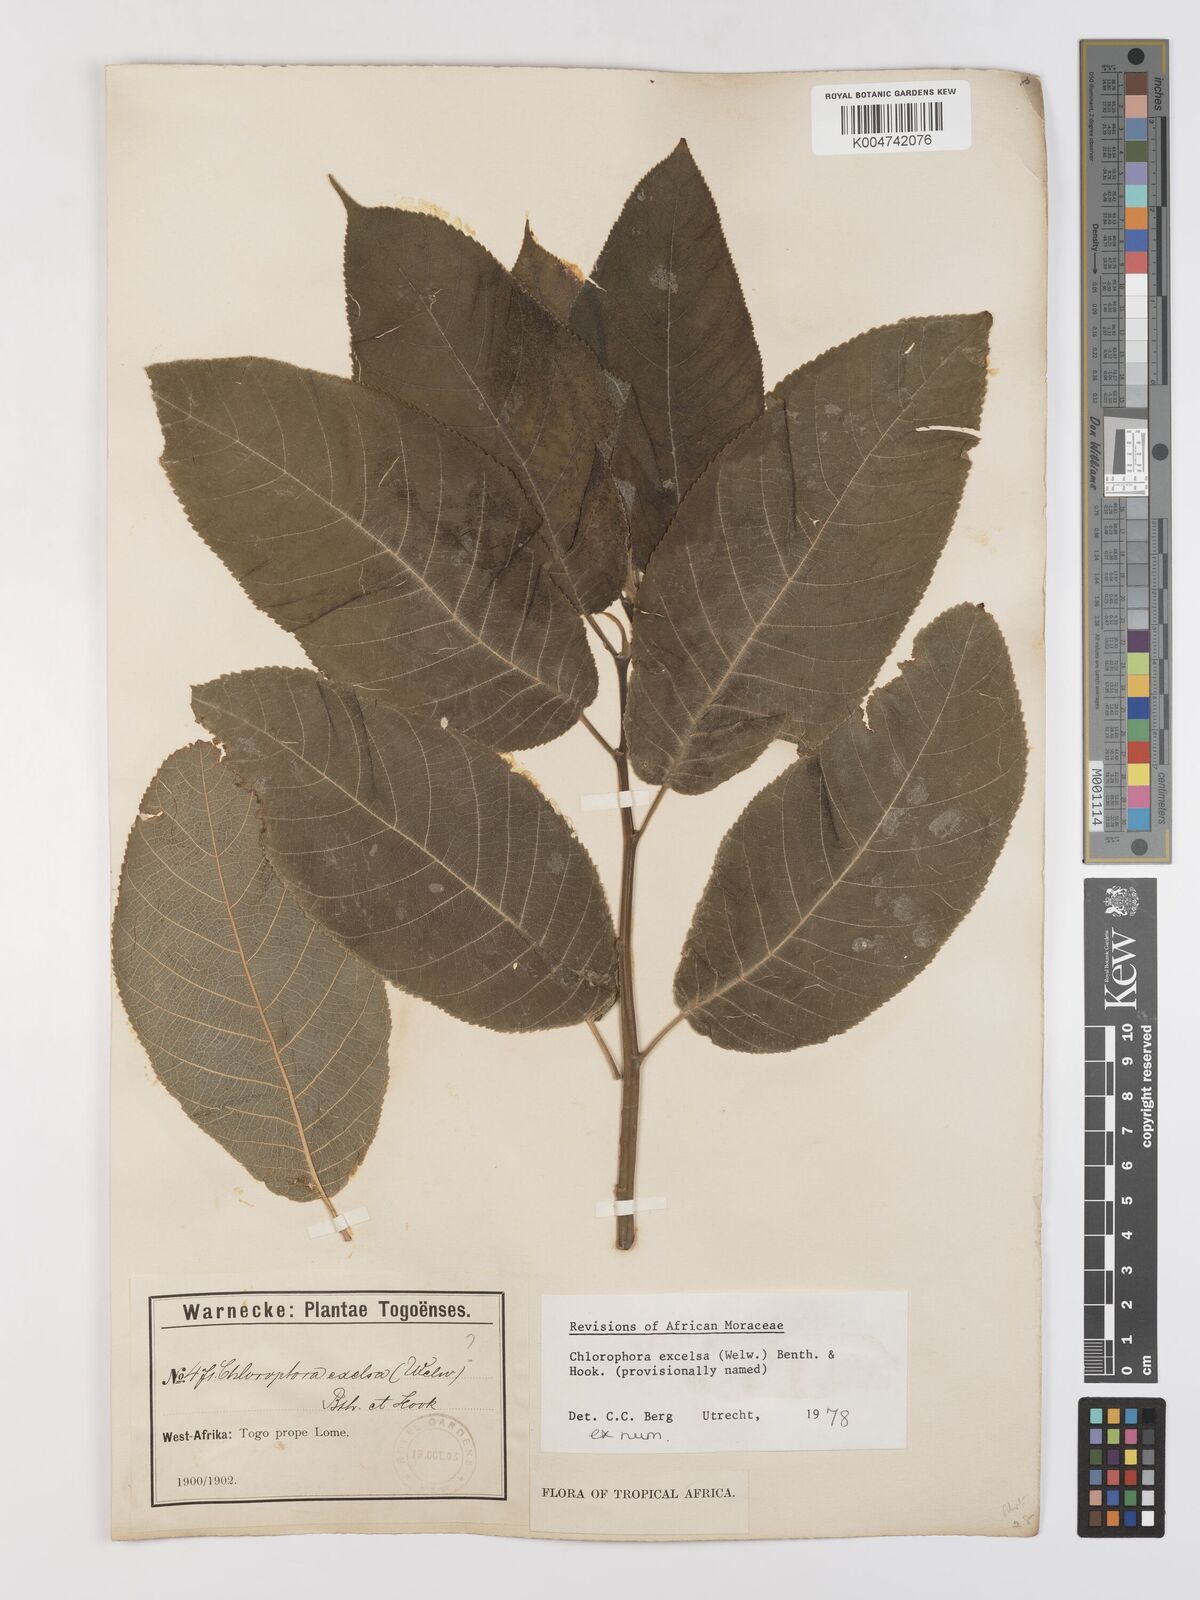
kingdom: Plantae
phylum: Tracheophyta
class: Magnoliopsida
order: Rosales
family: Moraceae
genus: Milicia
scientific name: Milicia excelsa
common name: African teak
